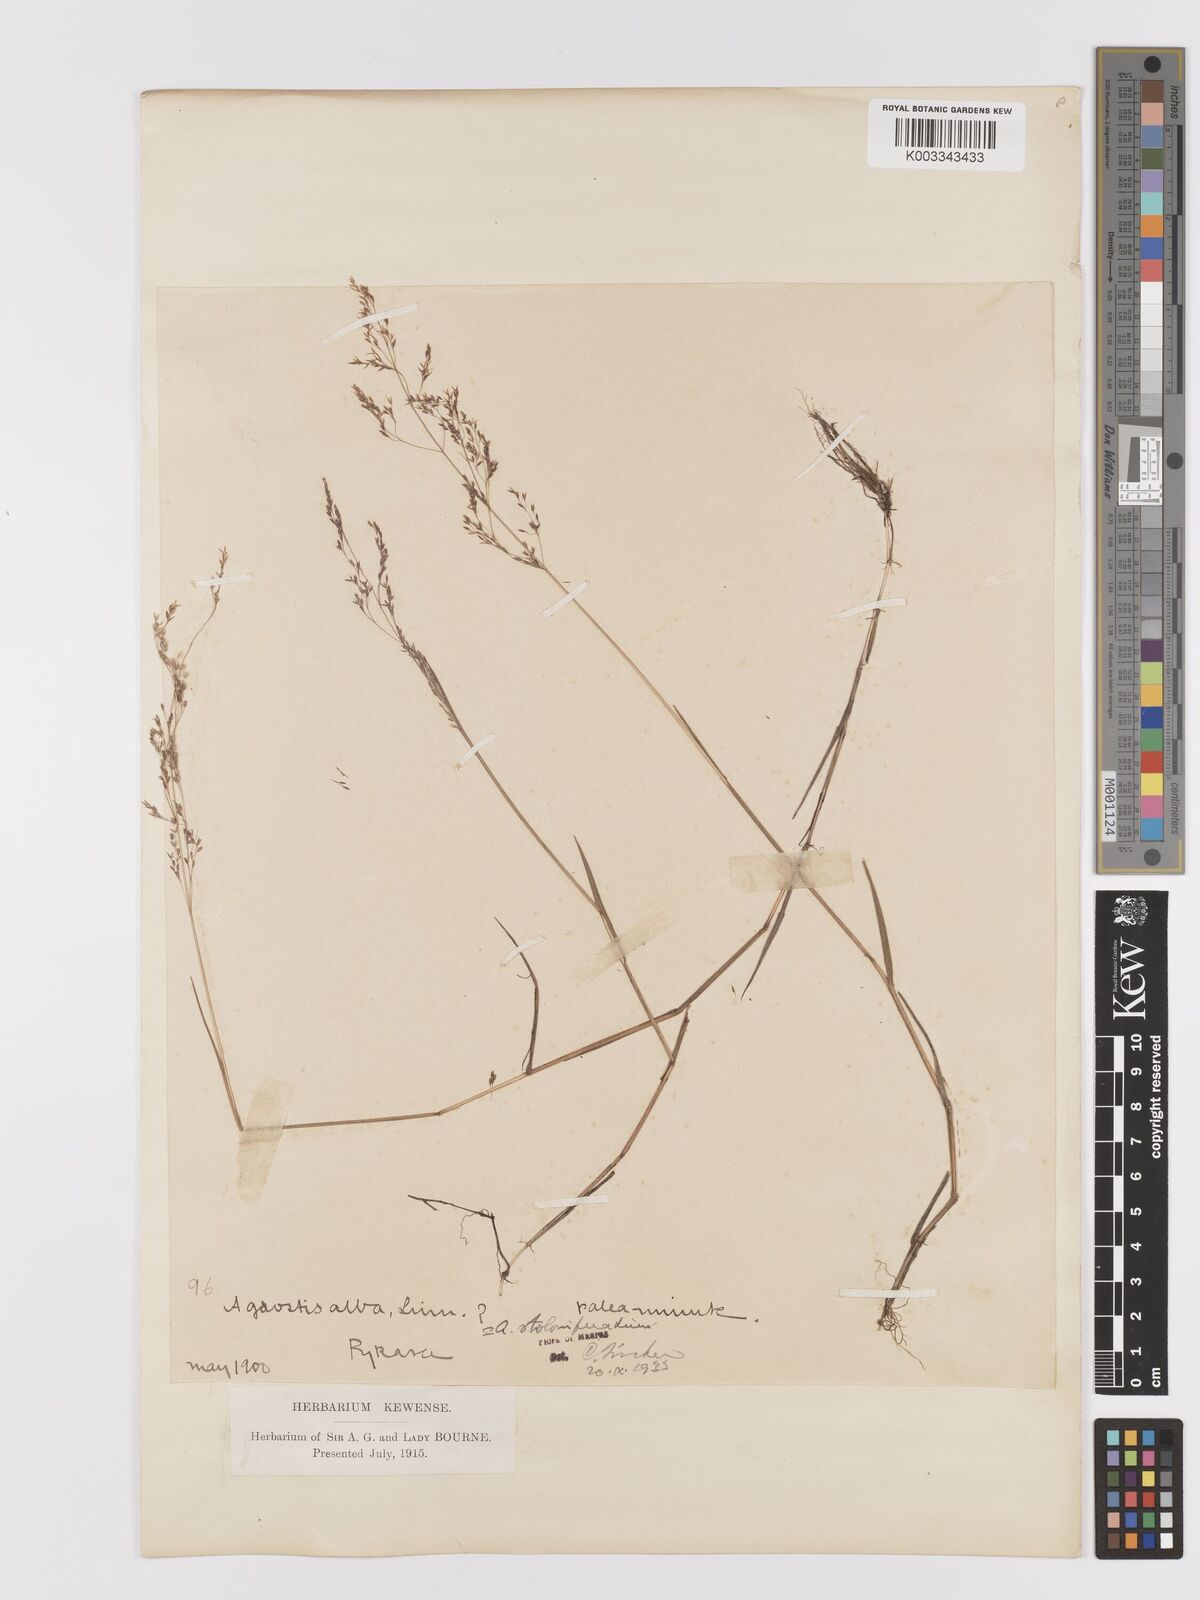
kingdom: Plantae
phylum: Tracheophyta
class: Liliopsida
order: Poales
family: Poaceae
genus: Agrostis
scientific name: Agrostis stolonifera
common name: Creeping bentgrass
